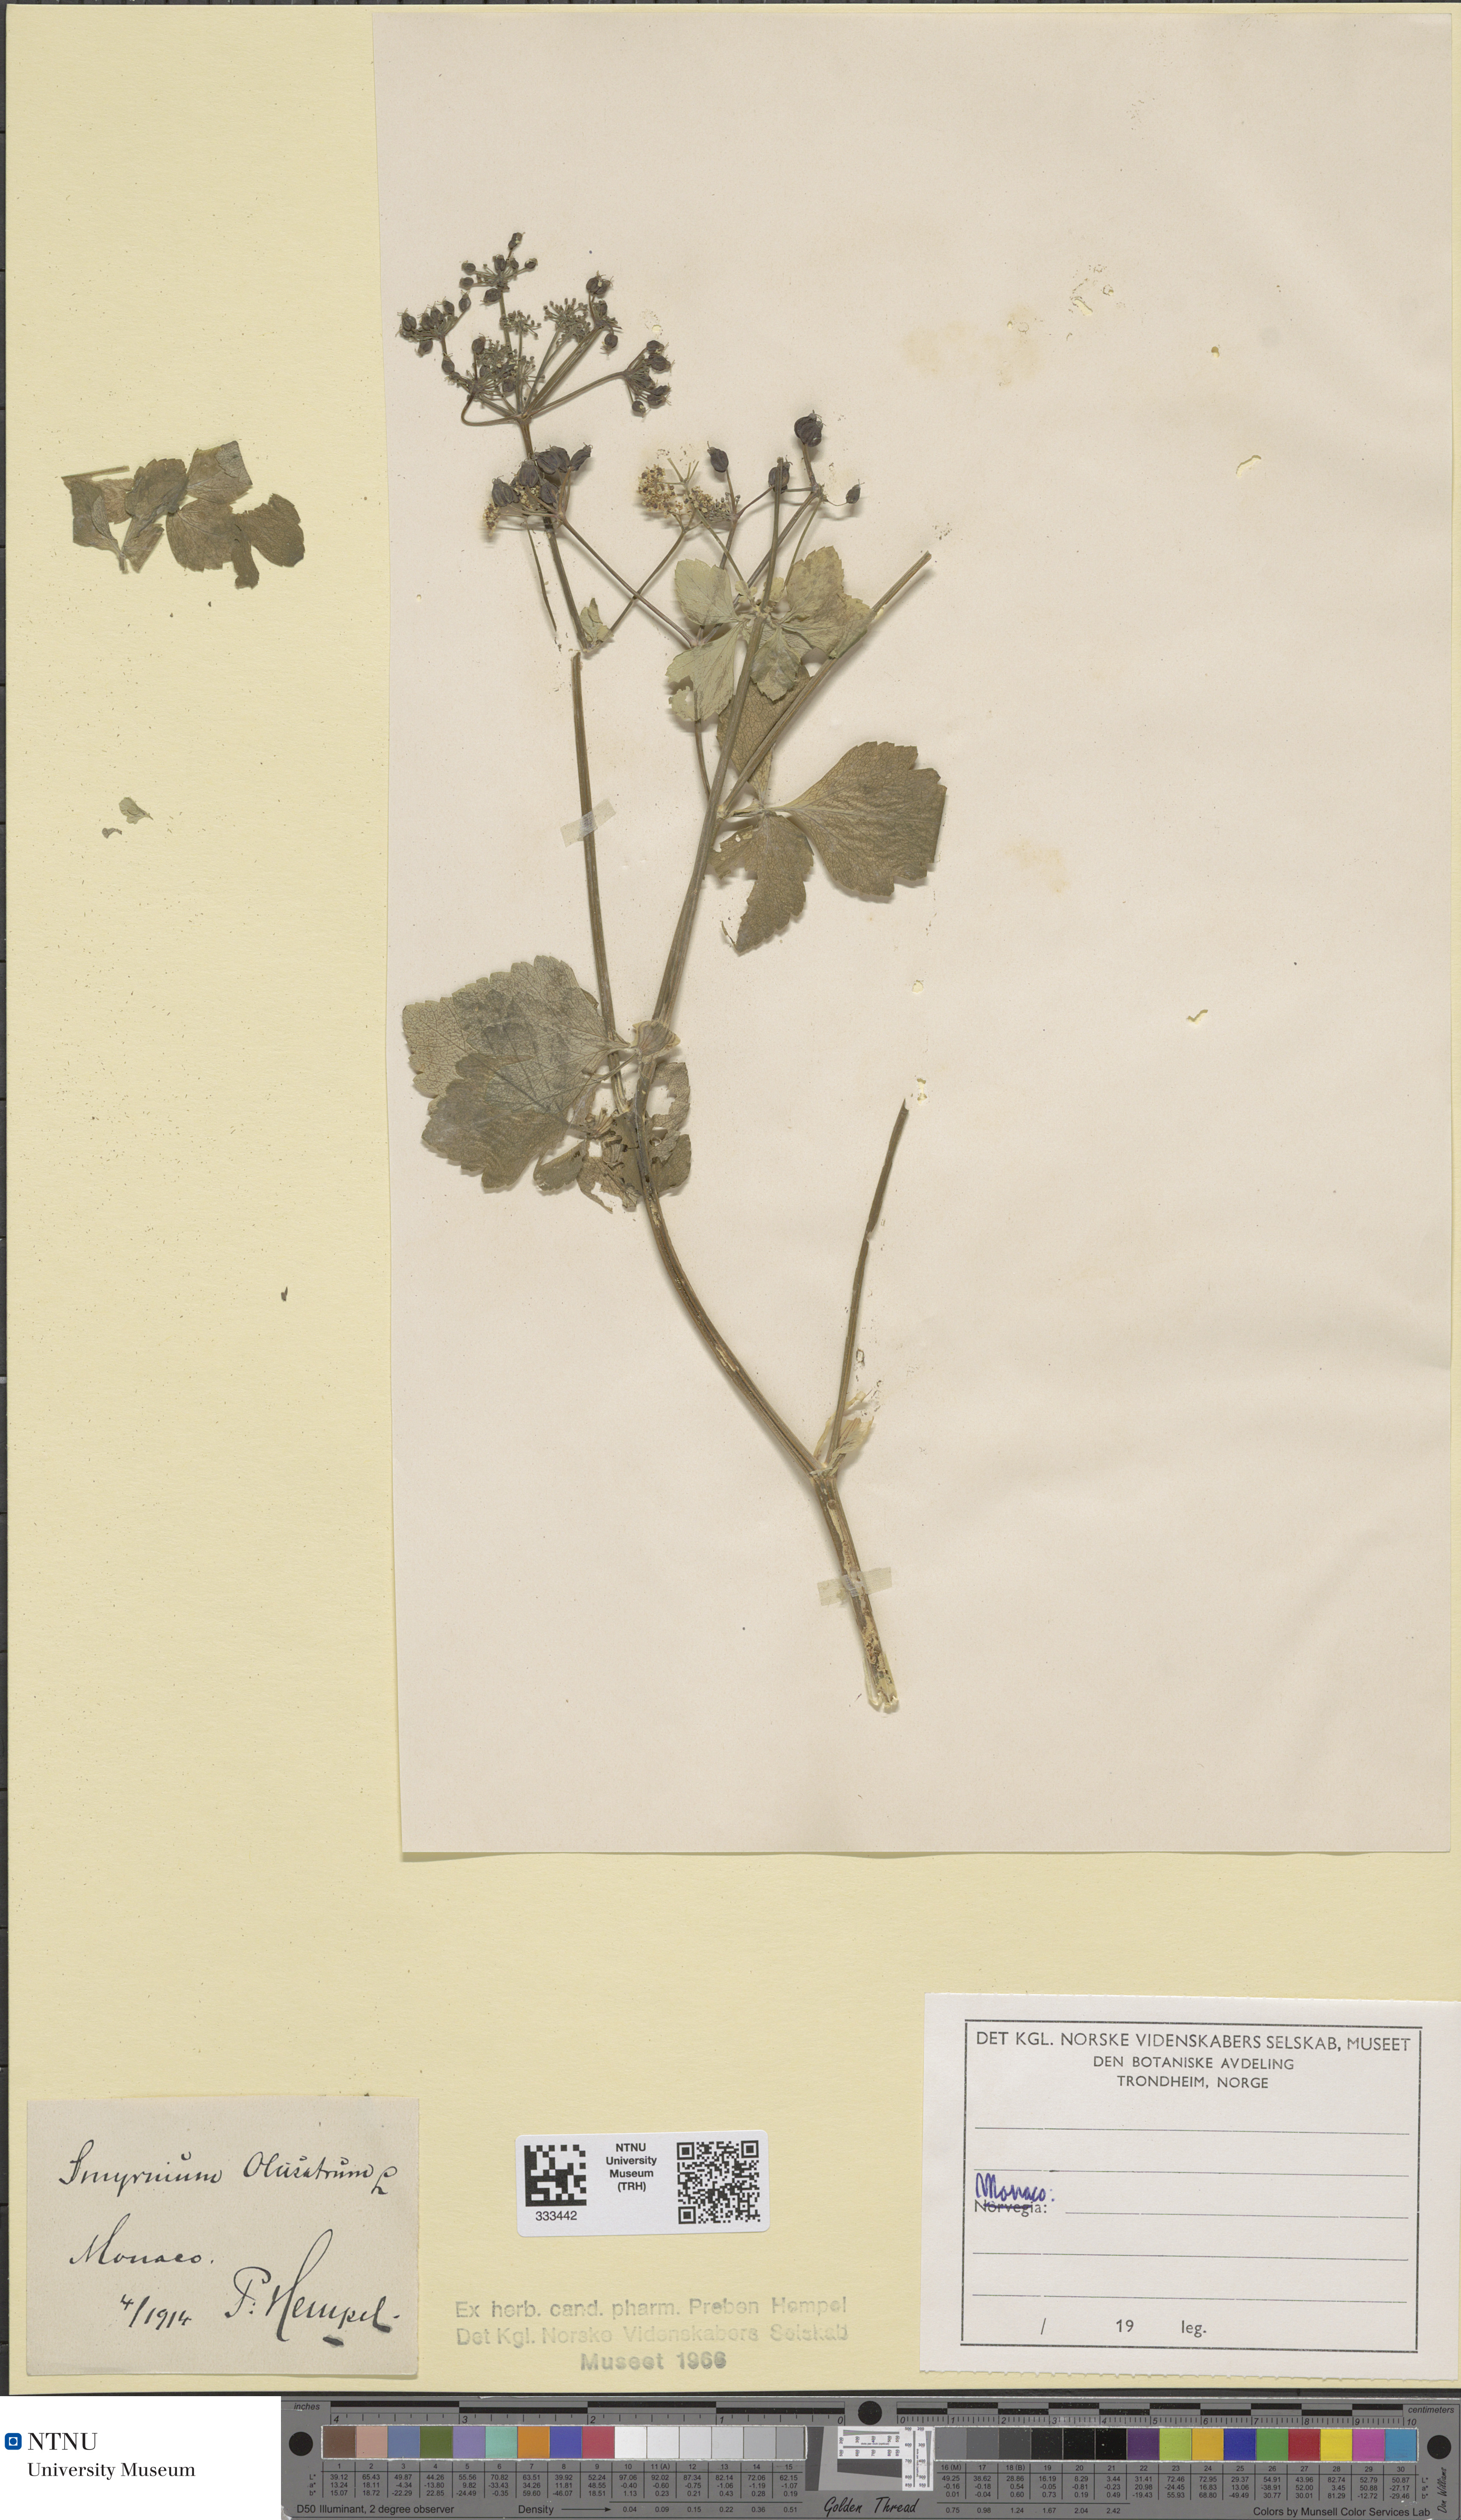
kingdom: Plantae
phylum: Tracheophyta
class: Magnoliopsida
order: Apiales
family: Apiaceae
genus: Smyrnium
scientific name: Smyrnium olusatrum
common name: Alexanders
